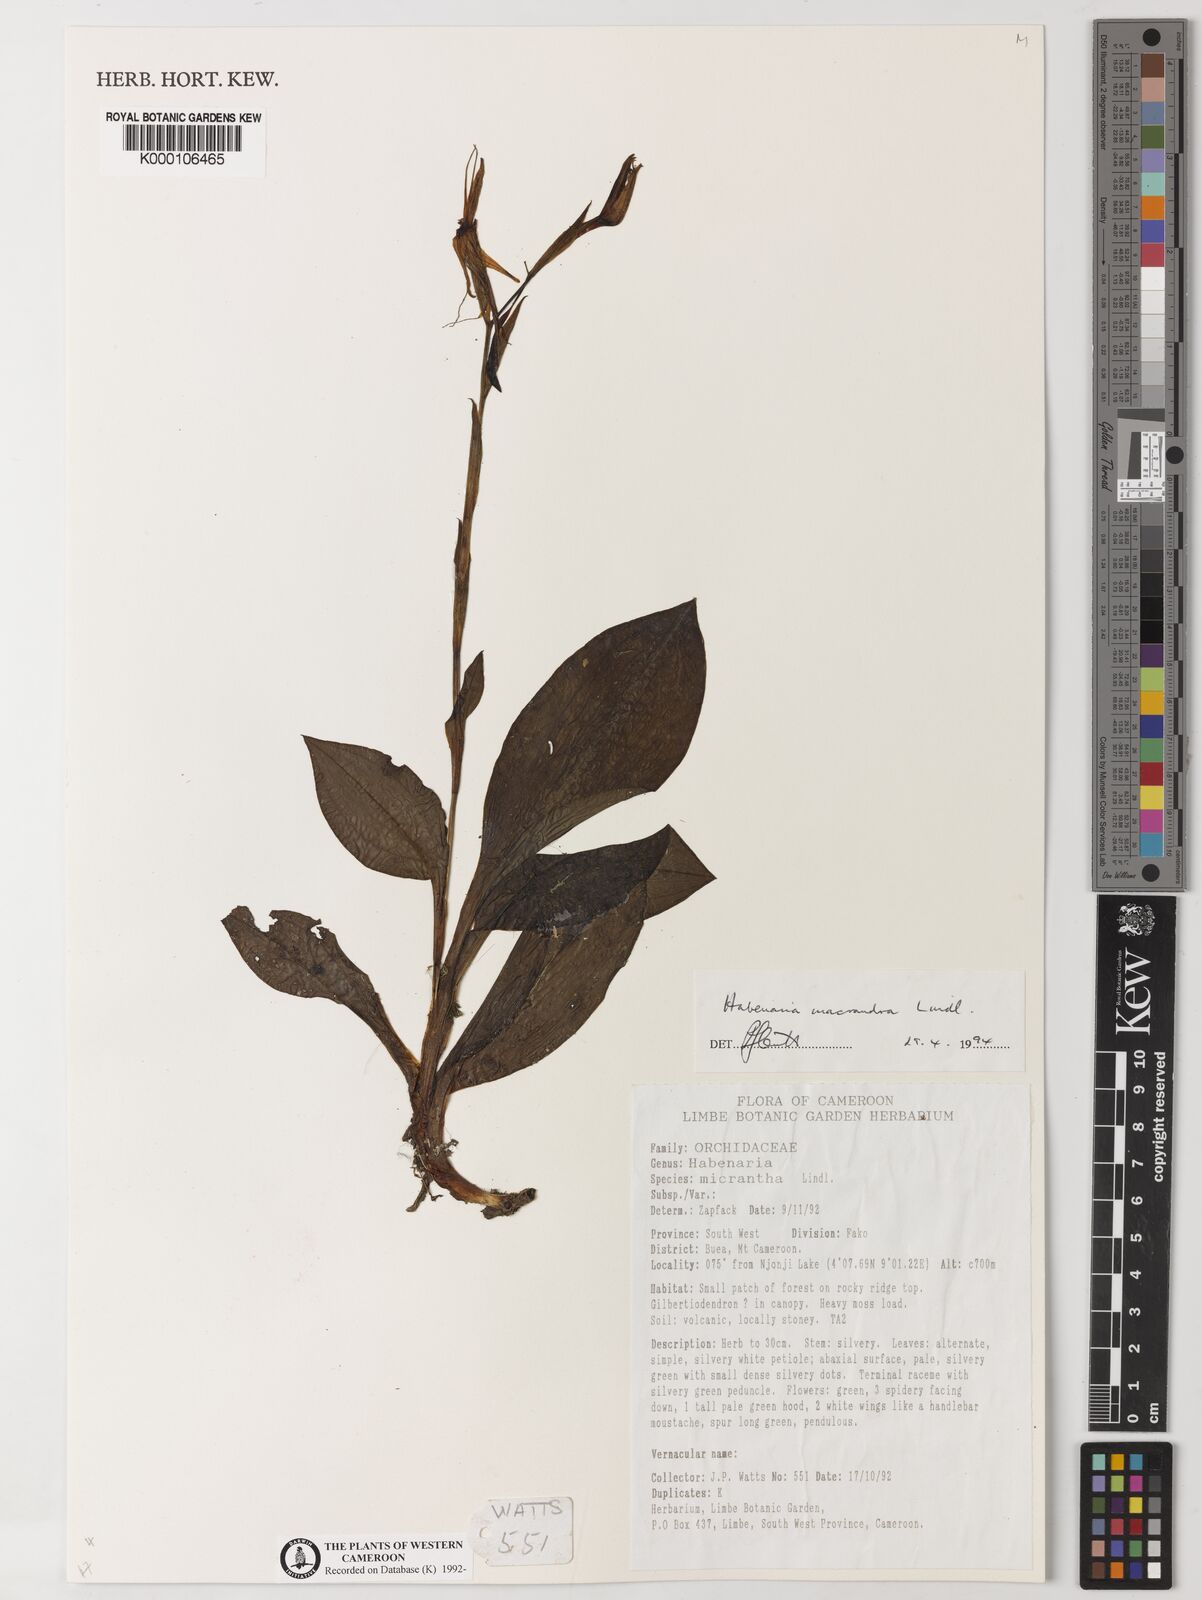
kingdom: Plantae
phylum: Tracheophyta
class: Liliopsida
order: Asparagales
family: Orchidaceae
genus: Habenaria
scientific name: Habenaria macrandra
